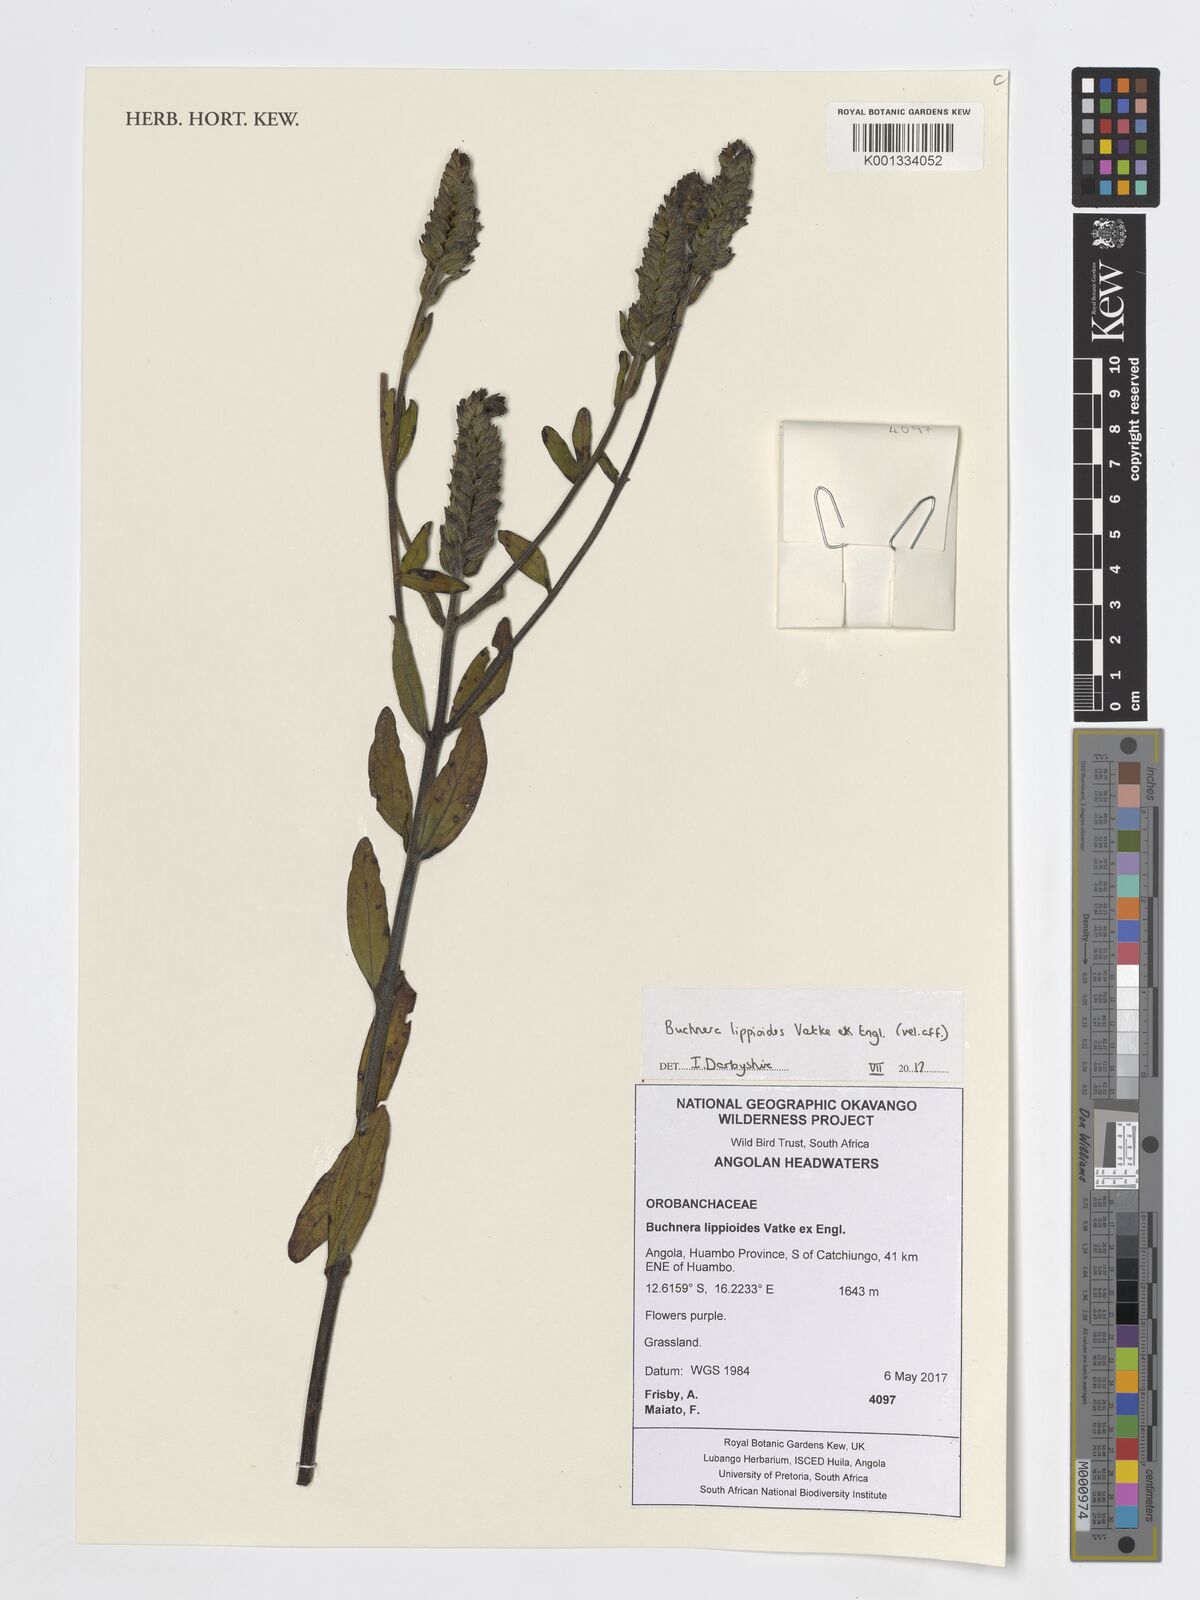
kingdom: Plantae
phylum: Tracheophyta
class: Magnoliopsida
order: Lamiales
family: Orobanchaceae
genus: Buchnera
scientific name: Buchnera lippioides
